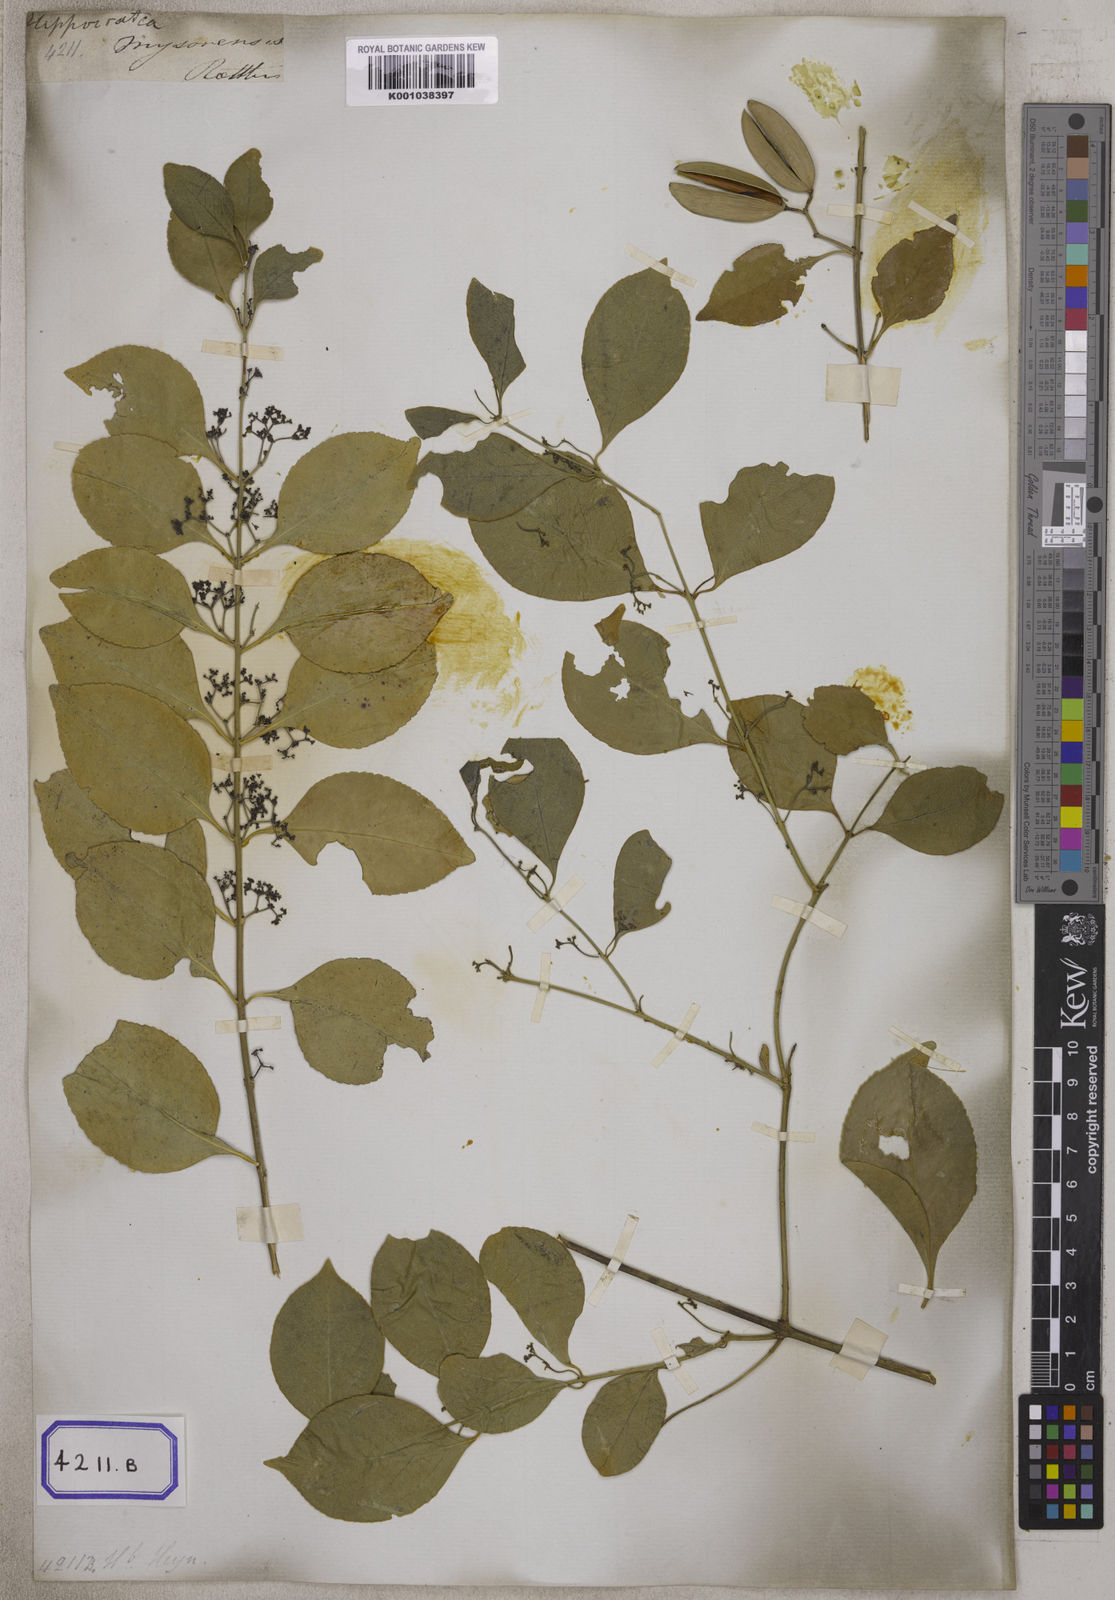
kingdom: Plantae
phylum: Tracheophyta
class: Magnoliopsida
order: Celastrales
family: Celastraceae
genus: Loeseneriella
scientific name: Loeseneriella obtusifolia
